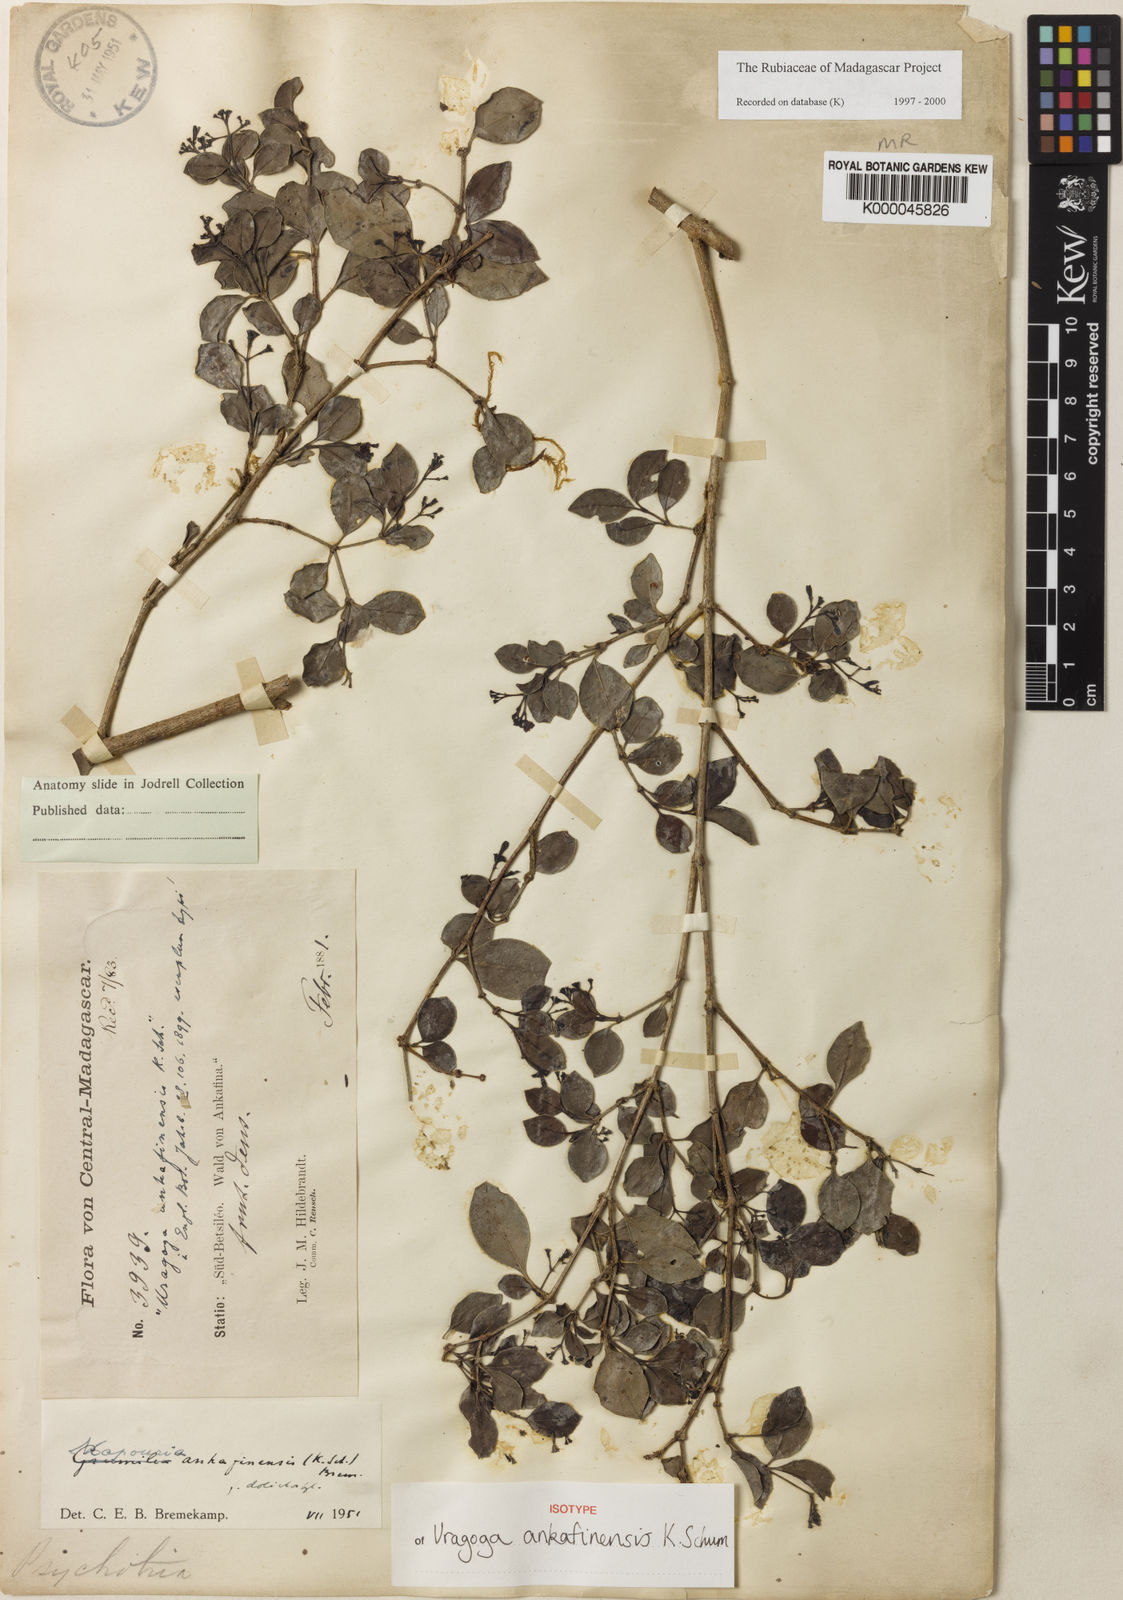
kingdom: Plantae
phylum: Tracheophyta
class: Magnoliopsida
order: Gentianales
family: Rubiaceae
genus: Psychotria
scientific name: Psychotria
